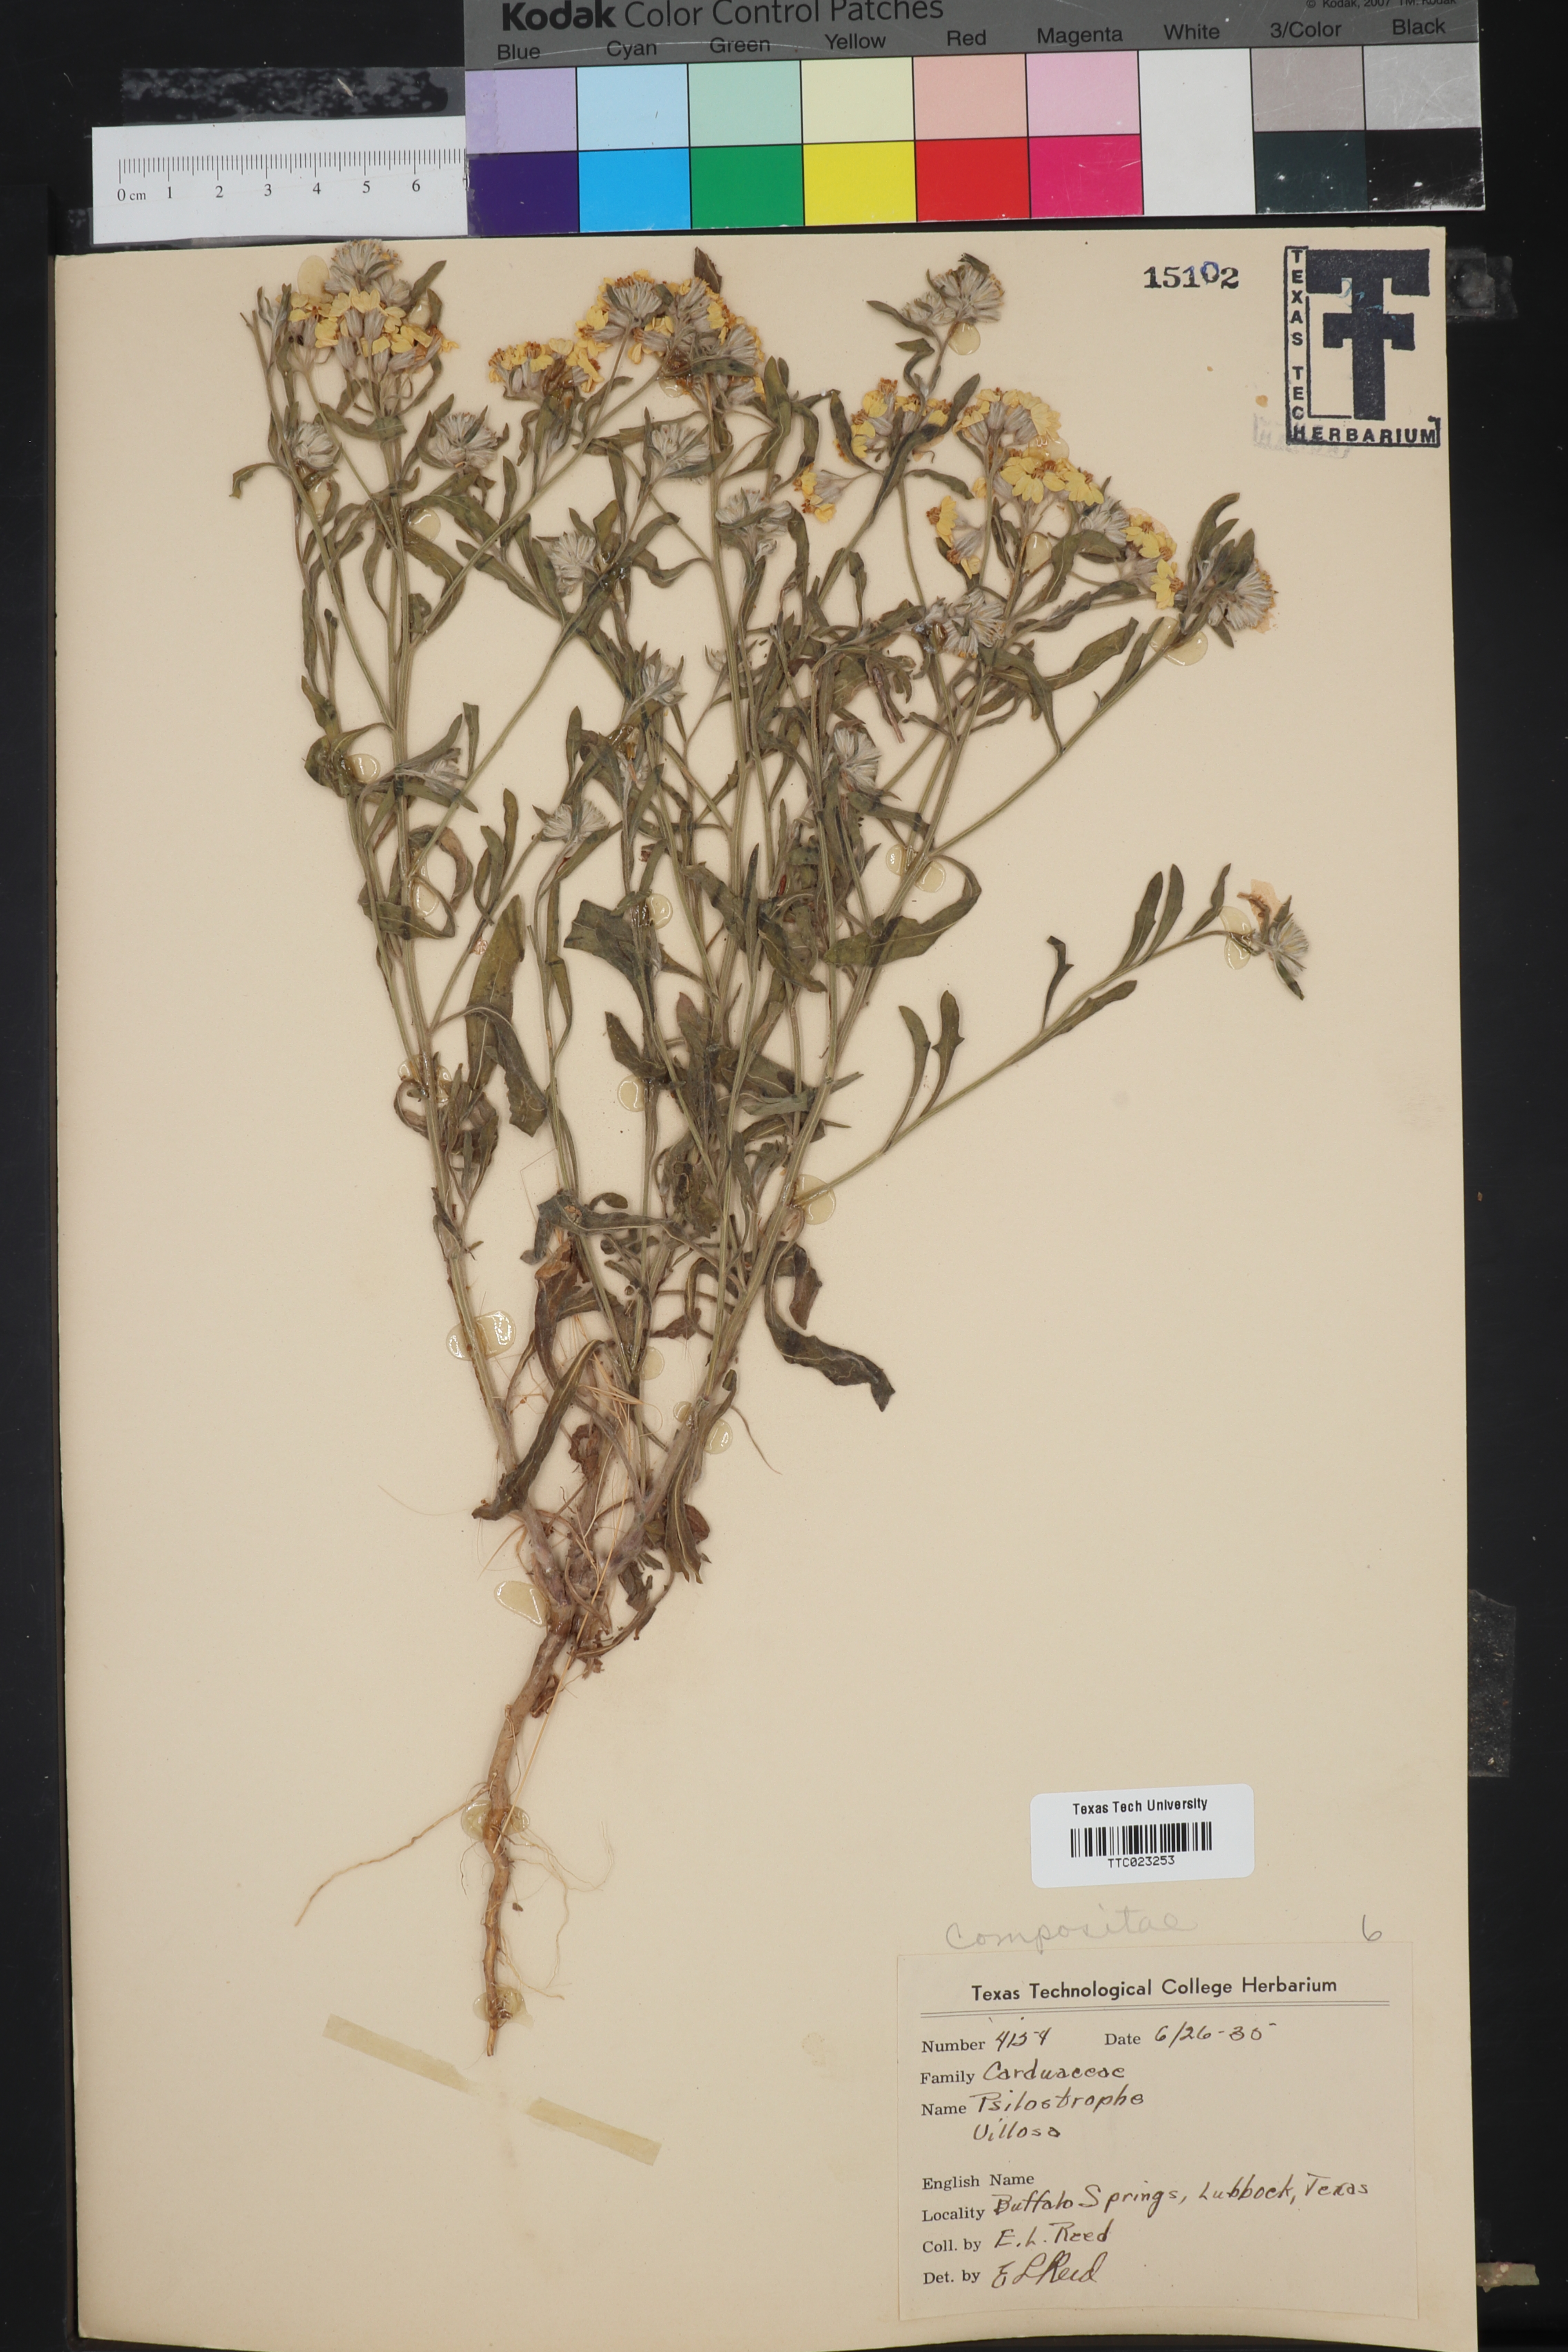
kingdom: Plantae
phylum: Tracheophyta
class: Magnoliopsida
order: Asterales
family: Asteraceae
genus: Psilostrophe
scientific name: Psilostrophe villosa
